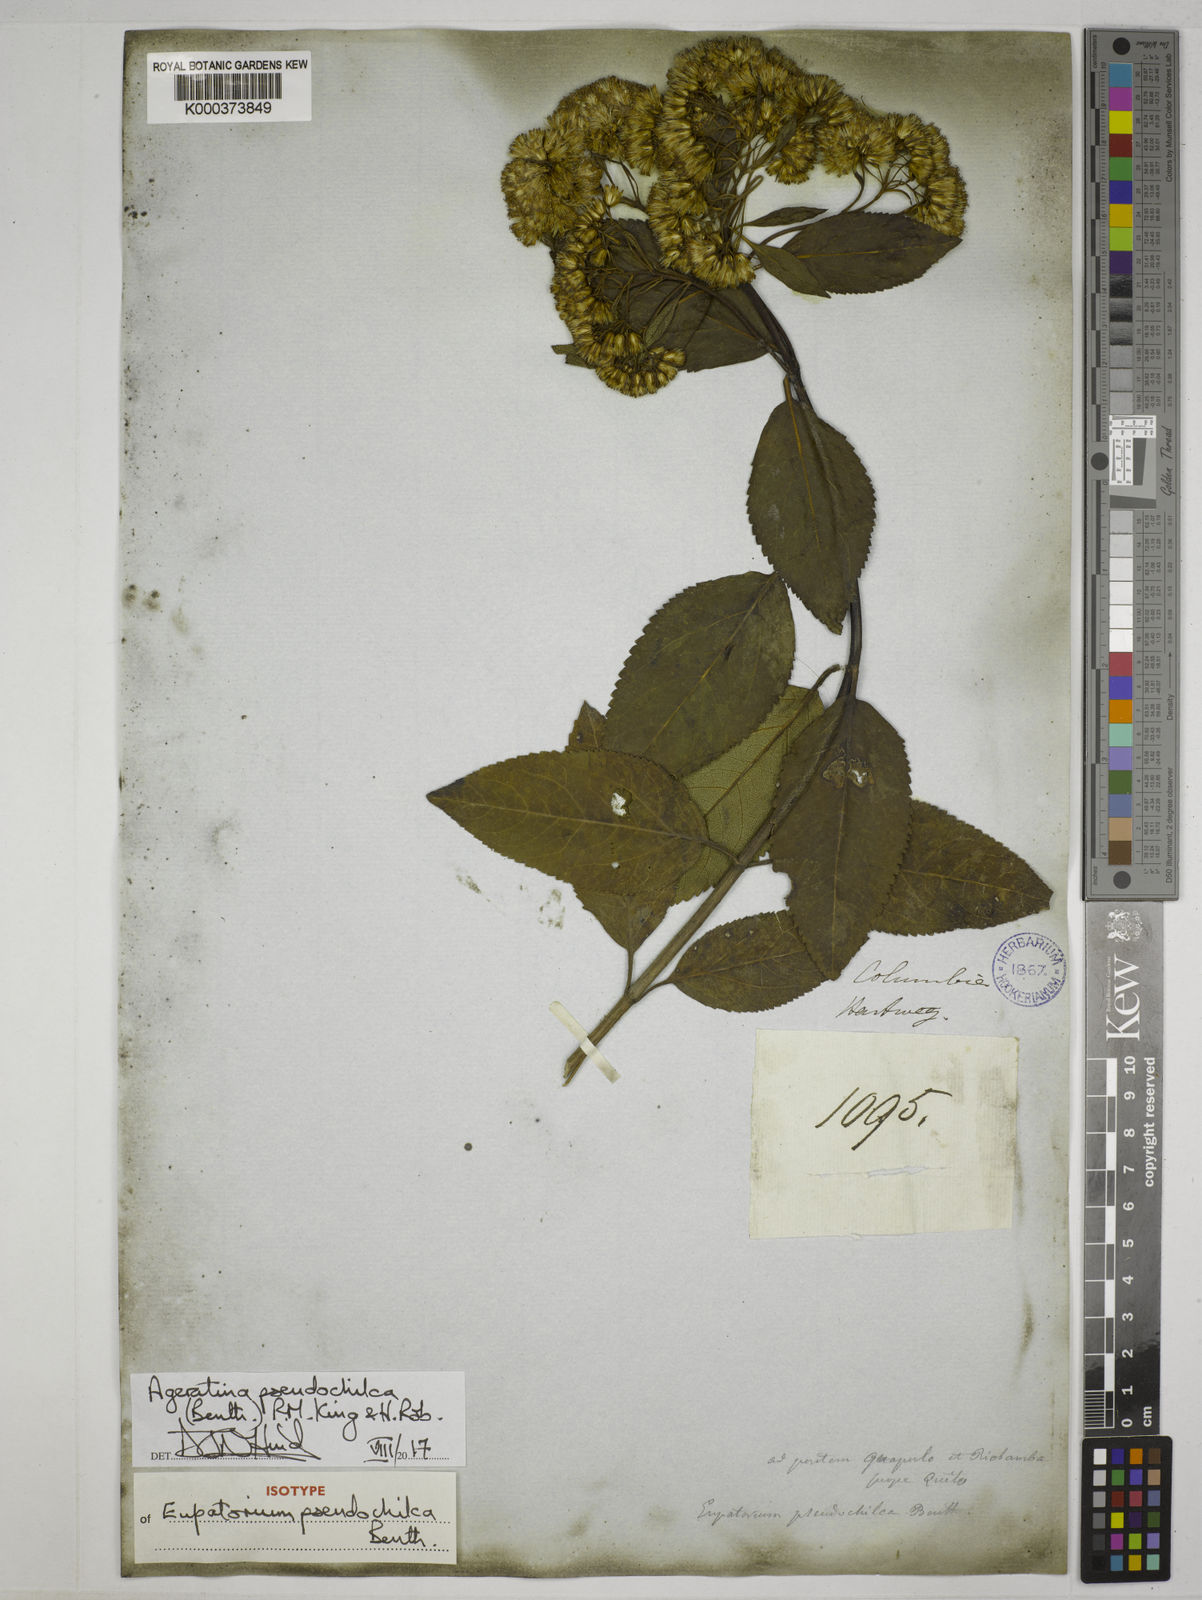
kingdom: Plantae
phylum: Tracheophyta
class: Magnoliopsida
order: Asterales
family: Asteraceae
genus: Ageratina
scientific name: Ageratina pseudochilca
